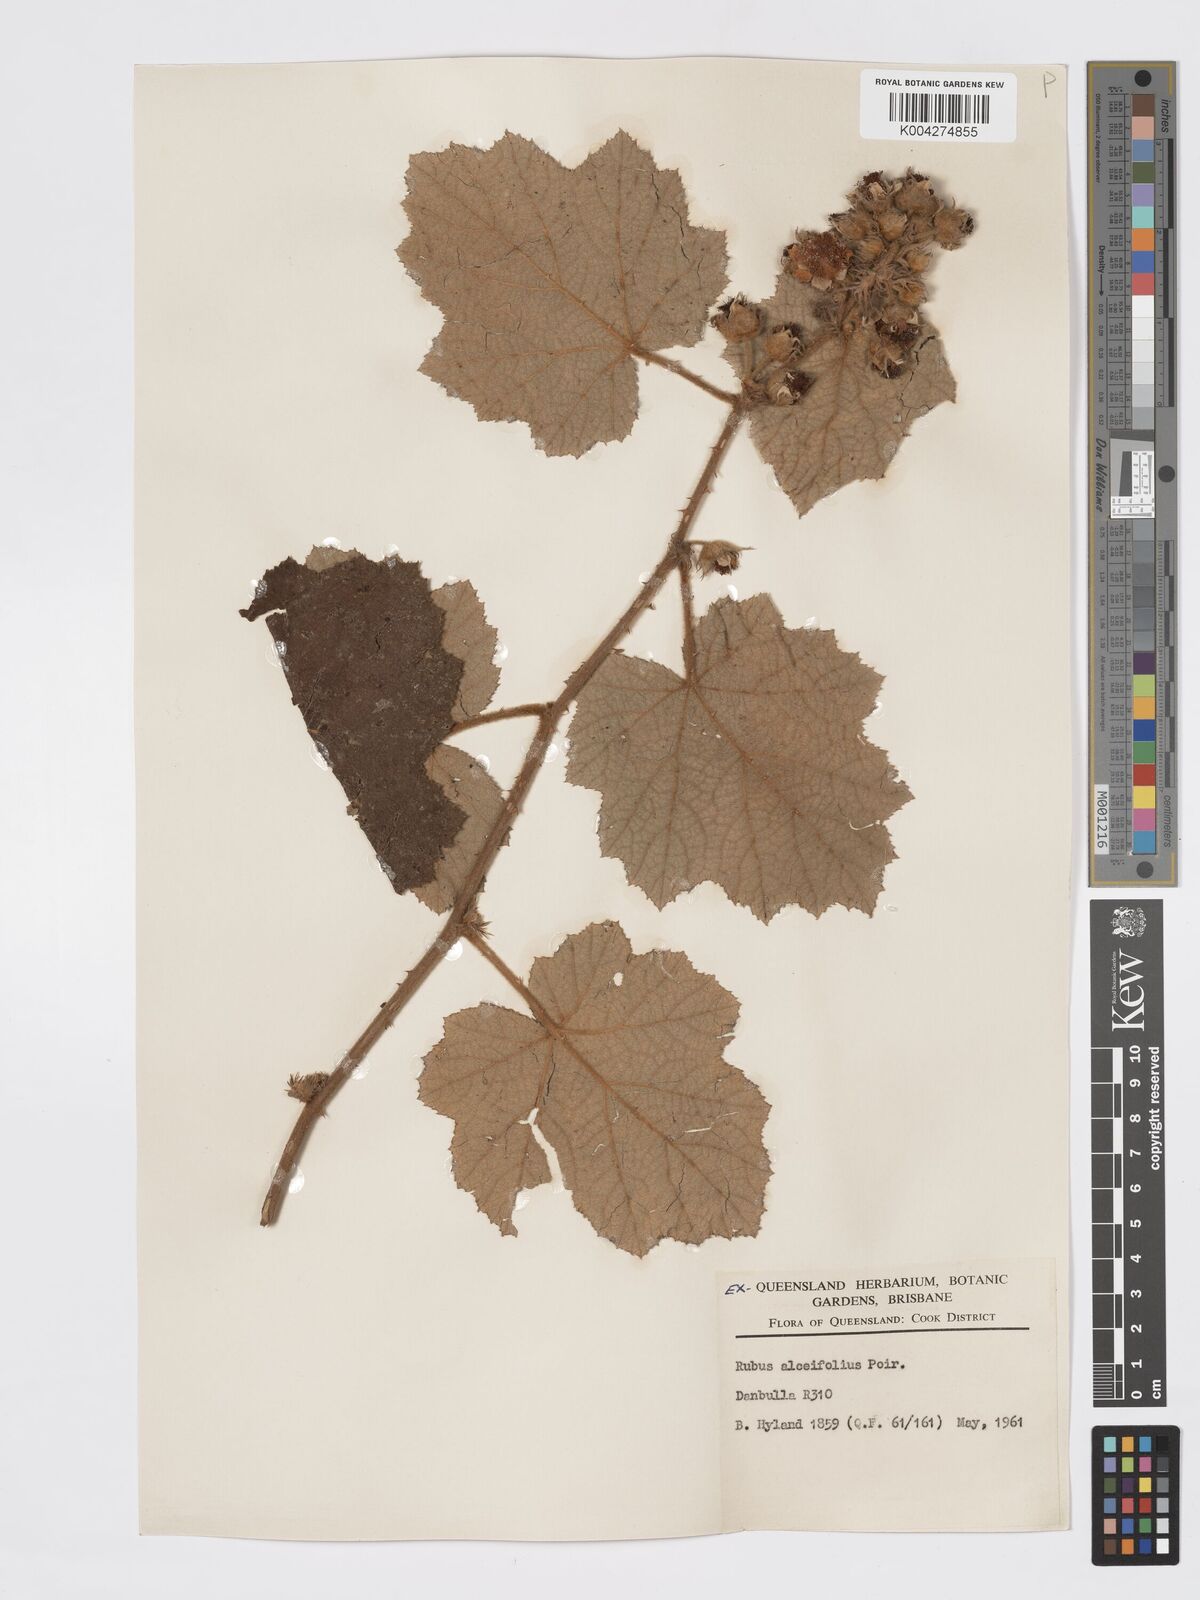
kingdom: Plantae
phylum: Tracheophyta
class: Magnoliopsida
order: Rosales
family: Rosaceae
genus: Rubus
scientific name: Rubus alceifolius
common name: Giant bramble
